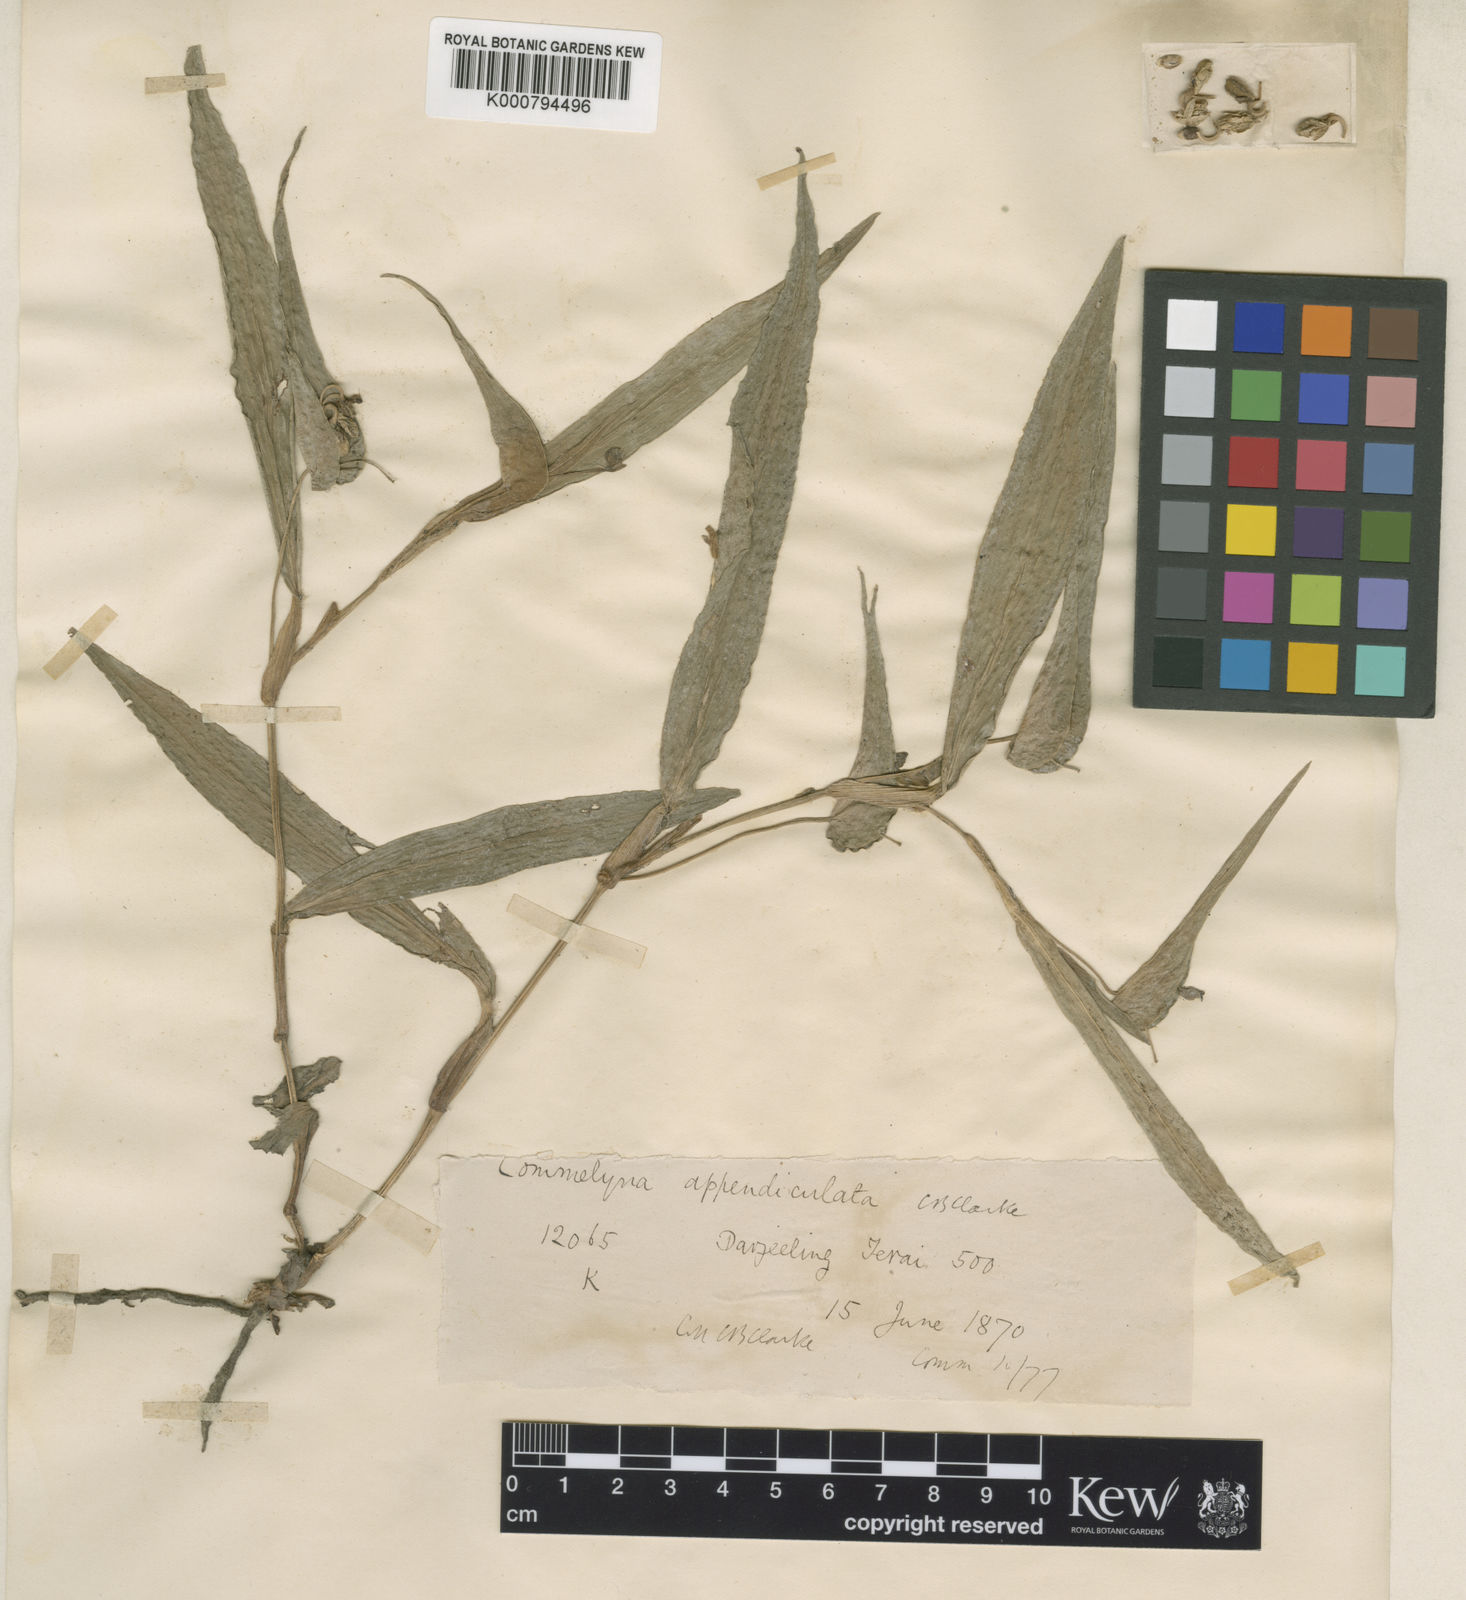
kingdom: Plantae
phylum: Tracheophyta
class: Liliopsida
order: Commelinales
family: Commelinaceae
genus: Commelina
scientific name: Commelina appendiculata
